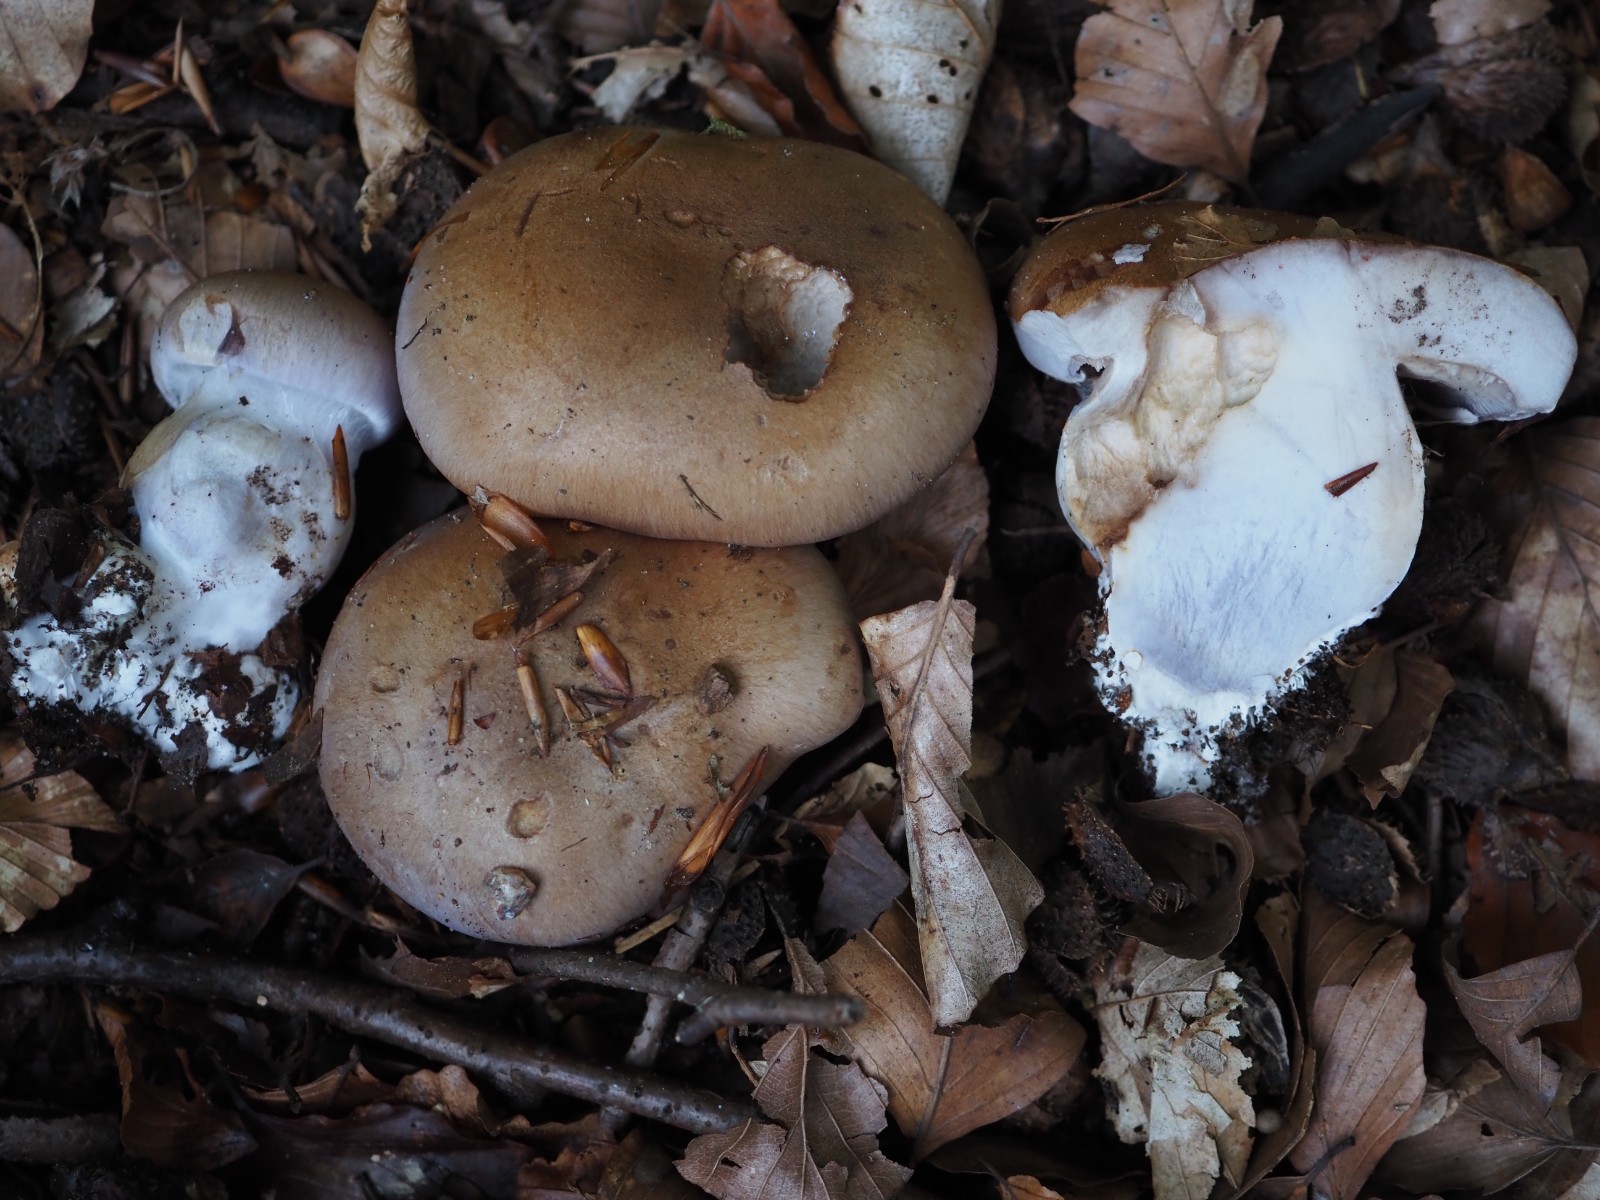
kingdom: Fungi
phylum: Basidiomycota
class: Agaricomycetes
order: Agaricales
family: Cortinariaceae
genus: Cortinarius
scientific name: Cortinarius largus
